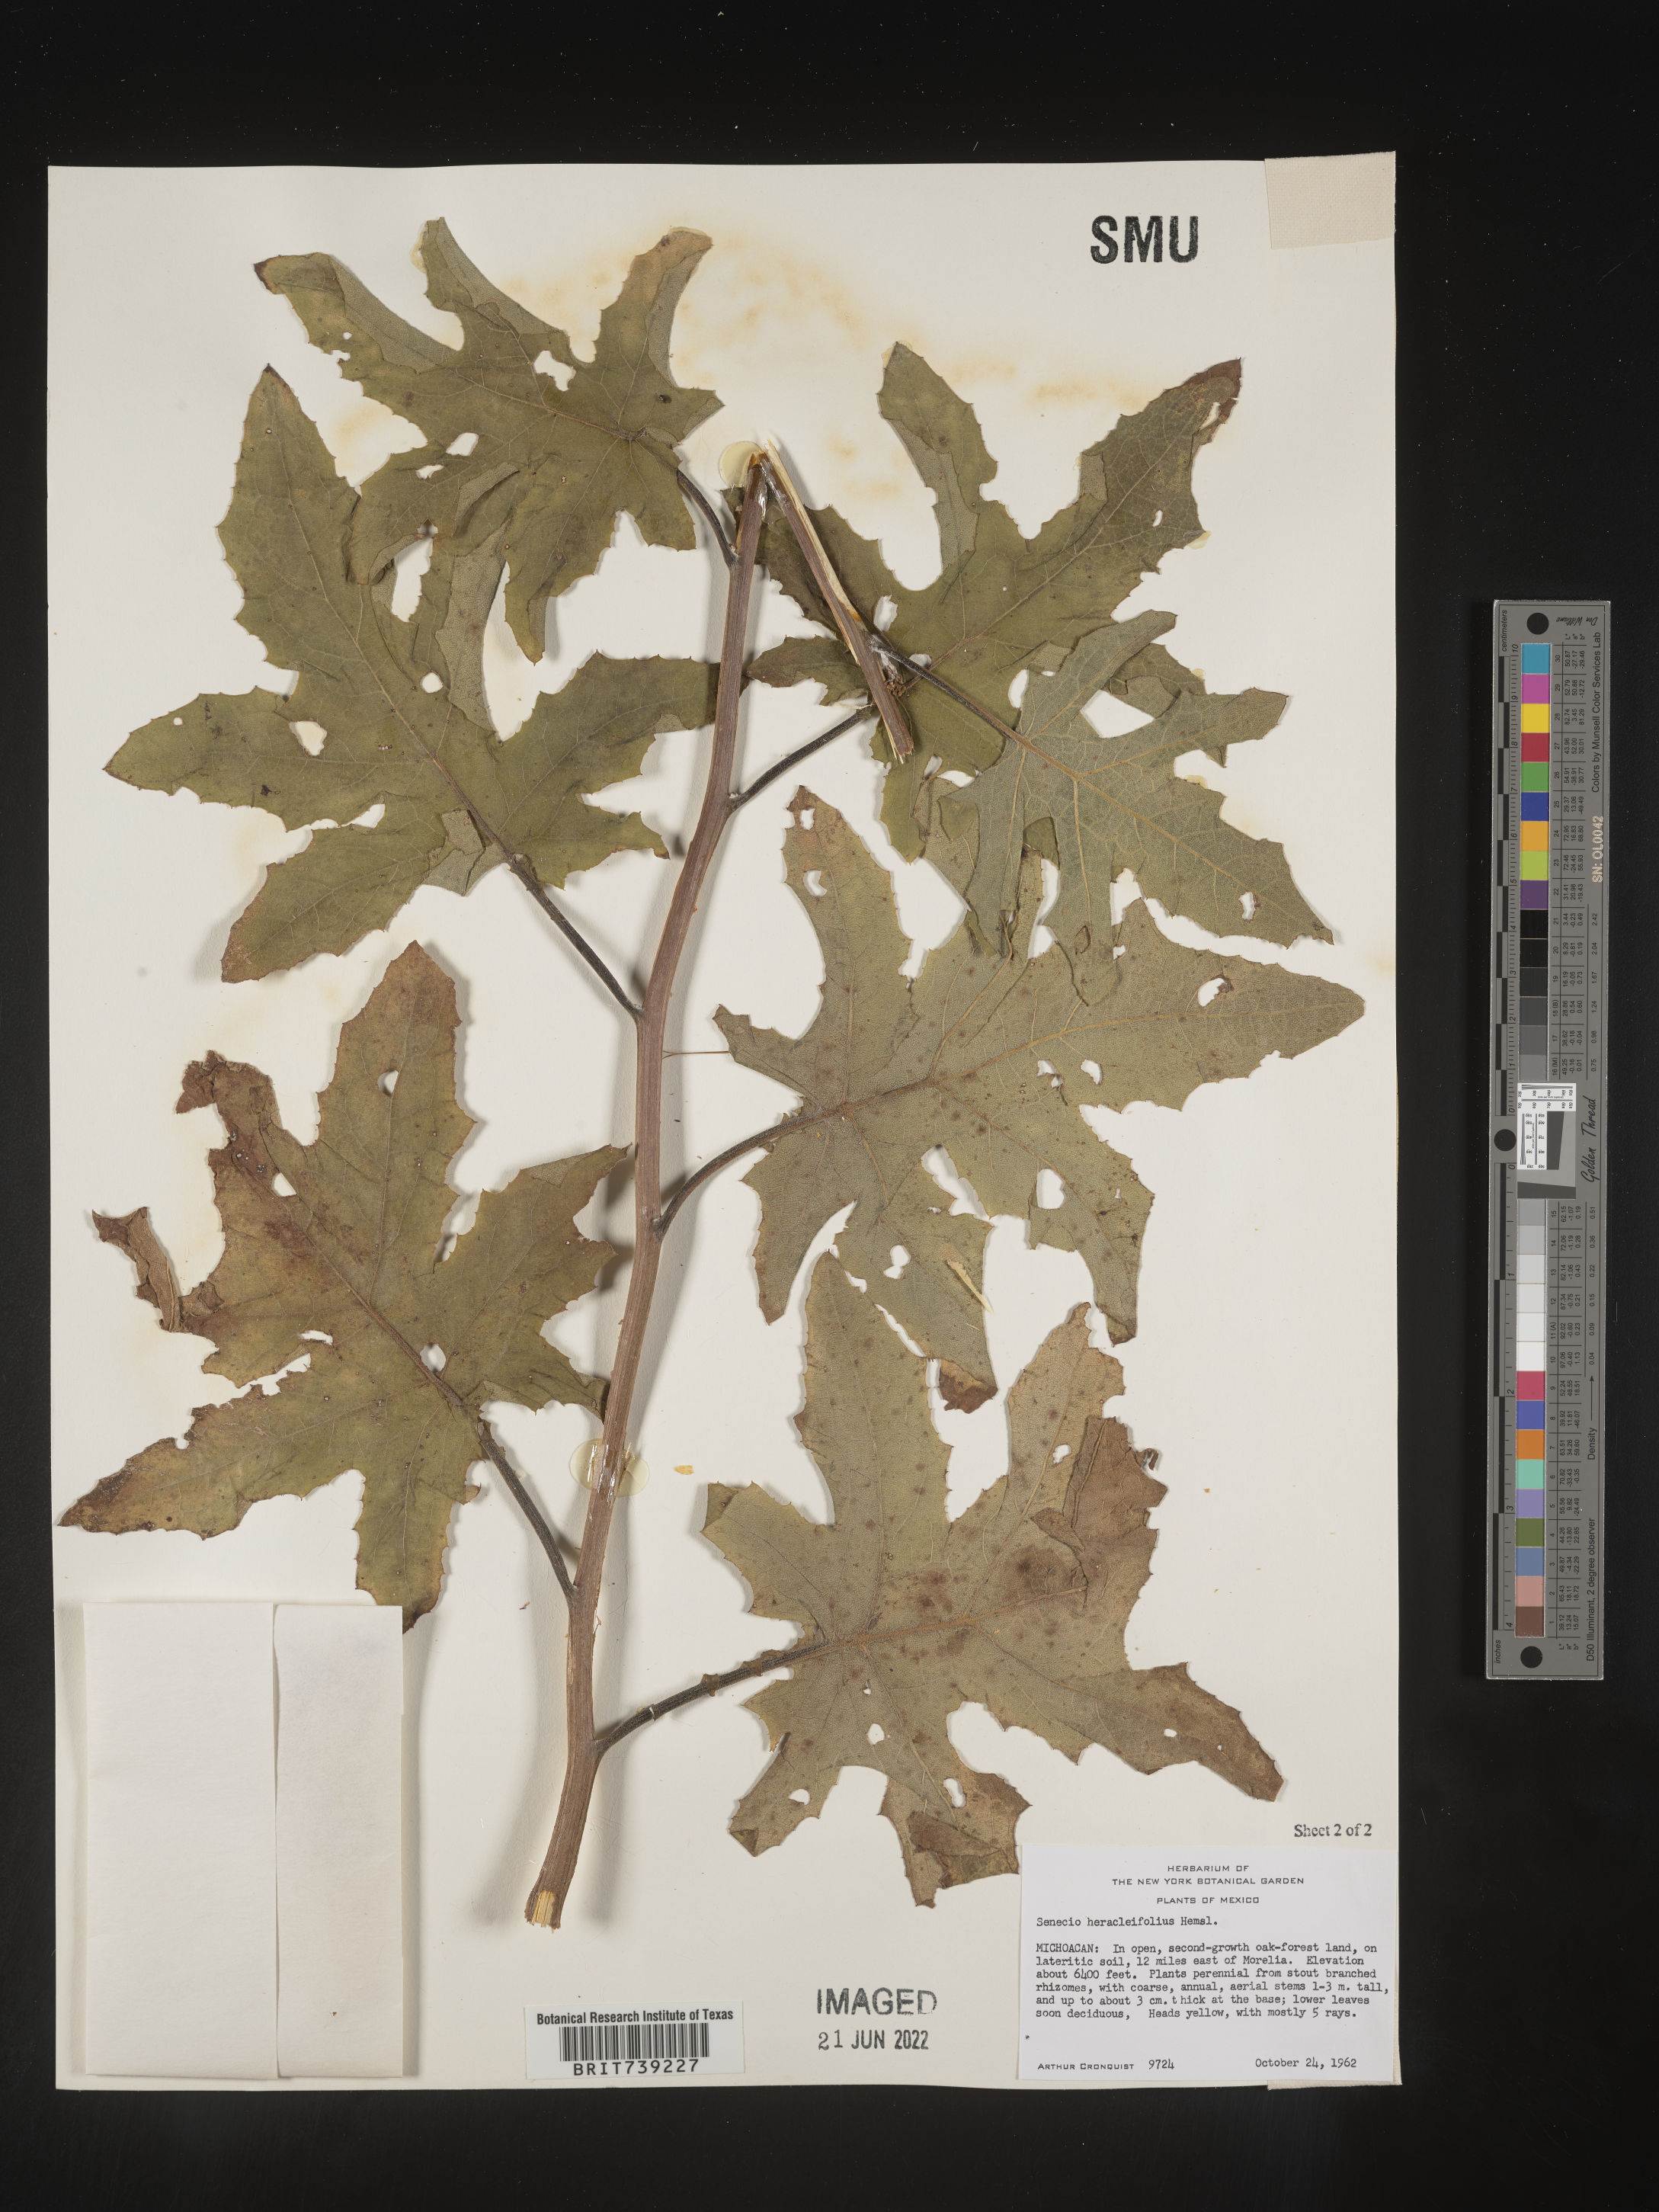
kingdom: Plantae
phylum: Tracheophyta
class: Magnoliopsida
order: Asterales
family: Asteraceae
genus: Roldana
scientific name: Roldana
